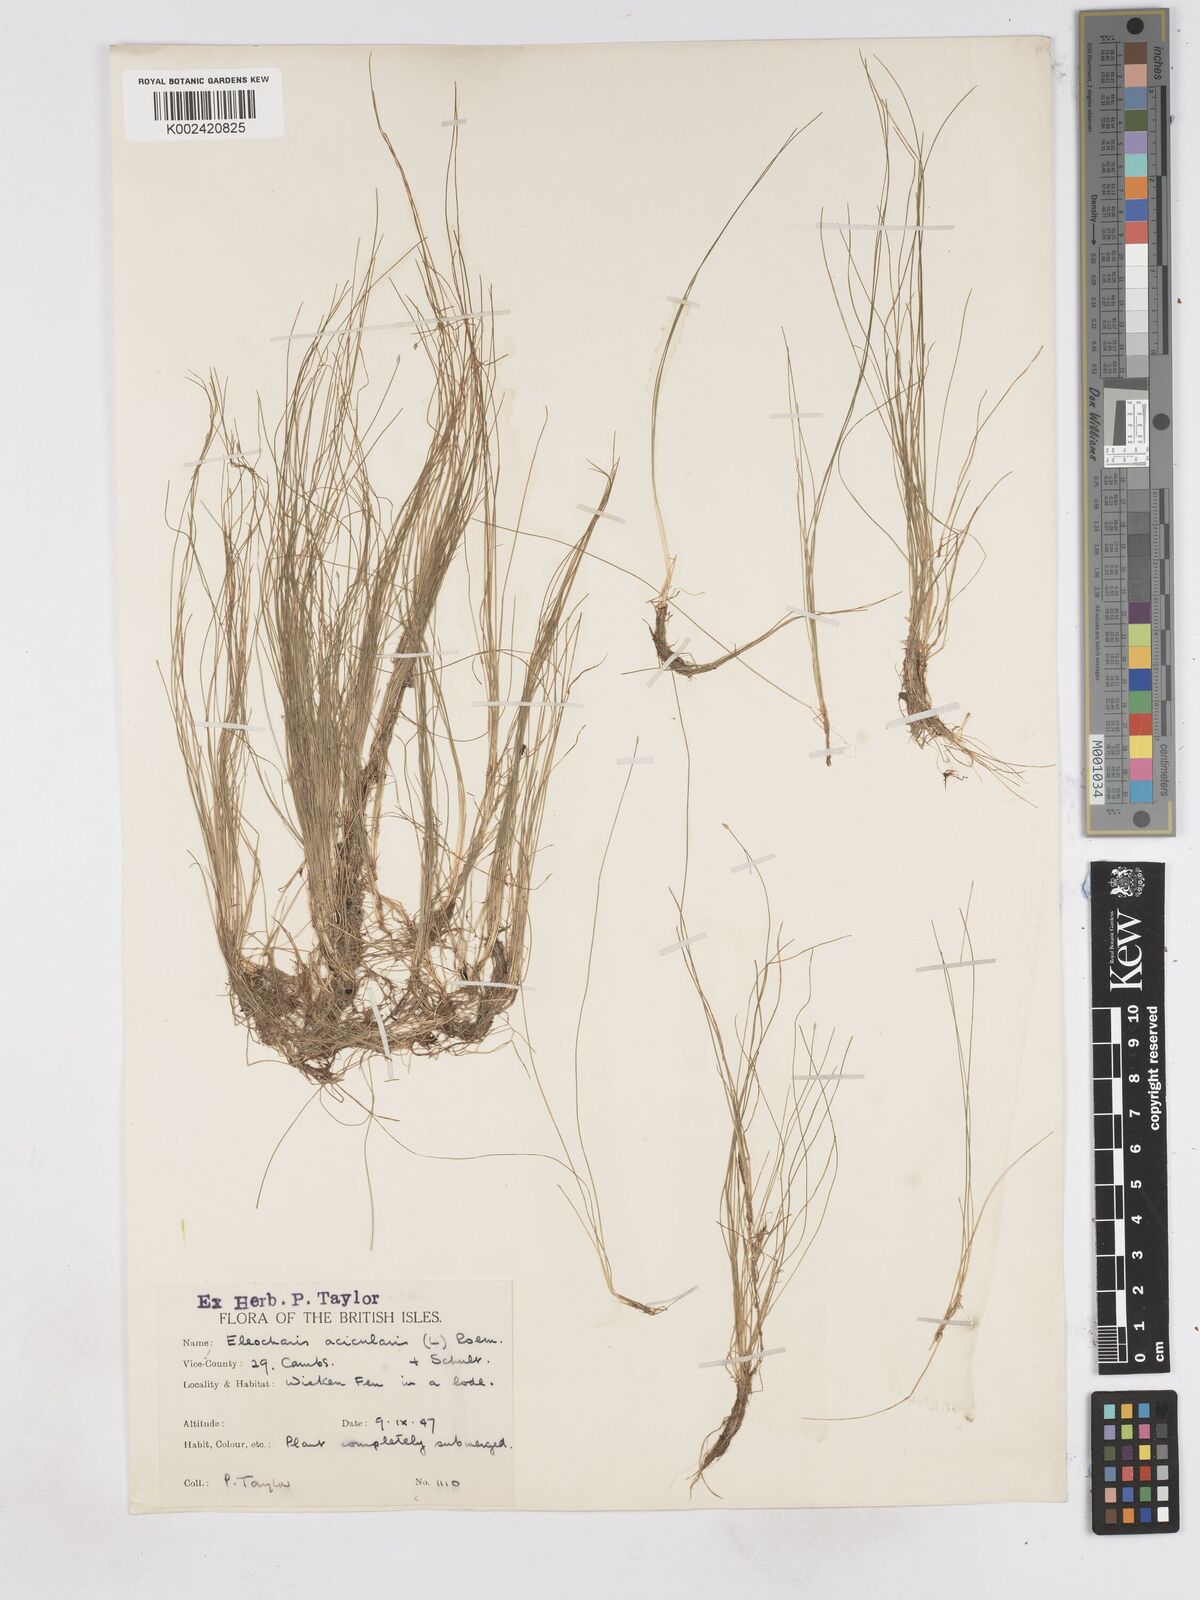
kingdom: Plantae
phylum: Tracheophyta
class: Liliopsida
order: Poales
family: Cyperaceae
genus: Eleocharis
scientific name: Eleocharis acicularis
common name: Needle spike-rush
